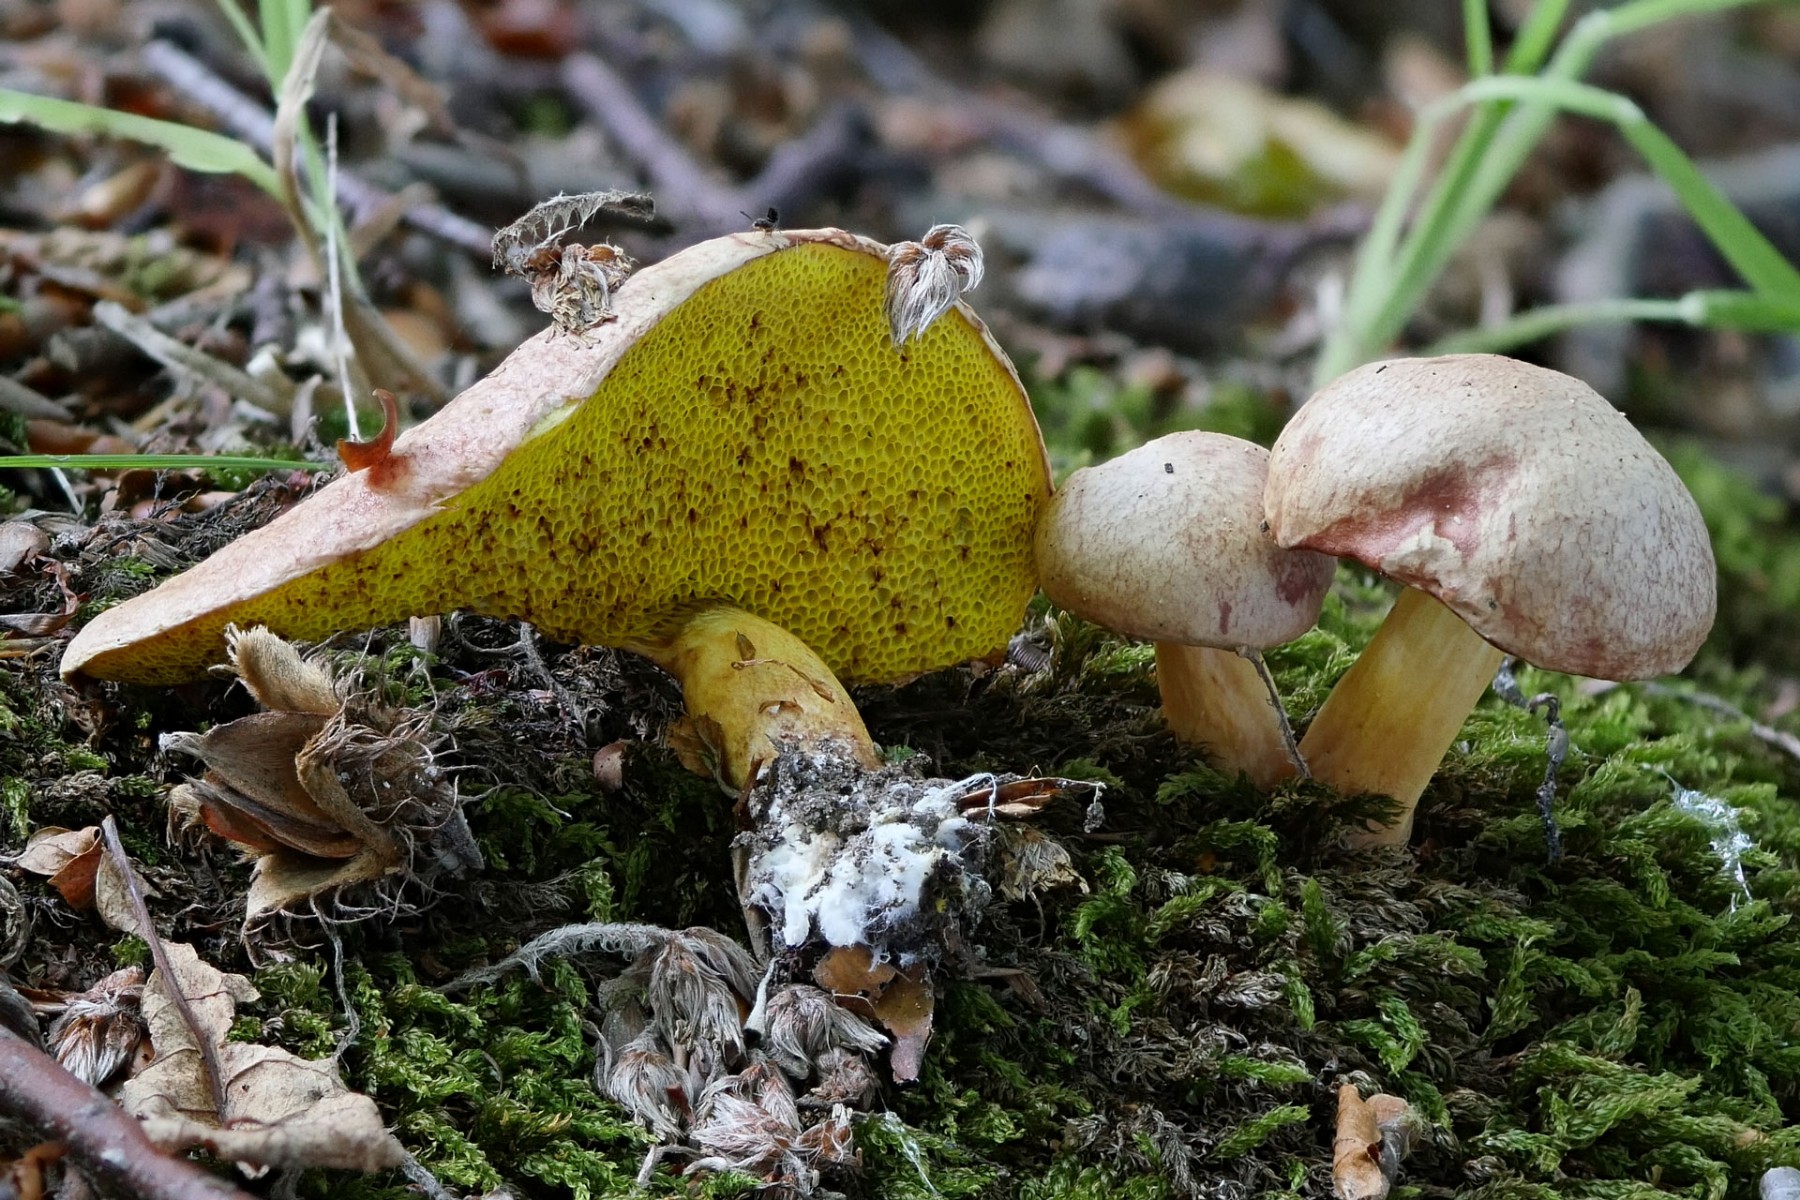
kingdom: Fungi
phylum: Basidiomycota
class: Agaricomycetes
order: Boletales
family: Boletaceae
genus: Aureoboletus
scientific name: Aureoboletus gentilis
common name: guldrørhat
